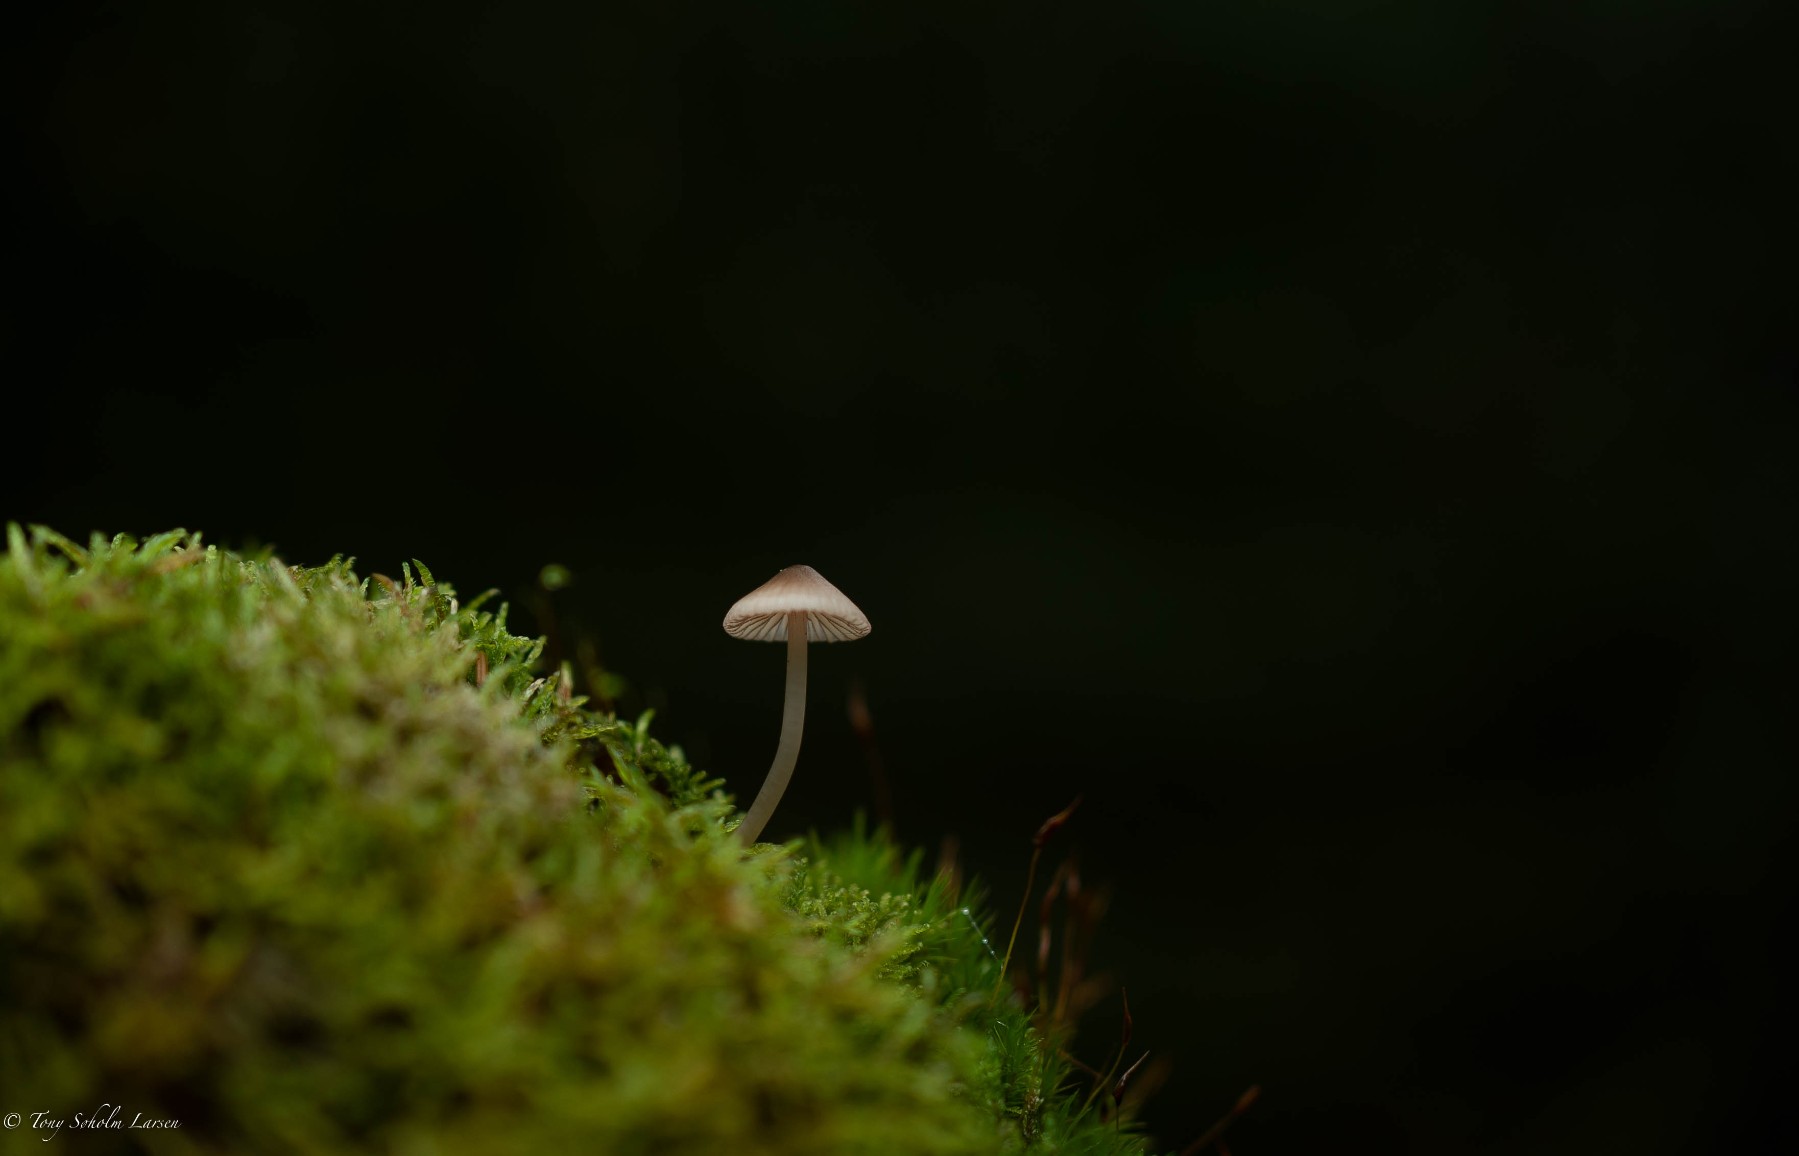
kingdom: Fungi
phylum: Basidiomycota
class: Agaricomycetes
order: Agaricales
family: Mycenaceae
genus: Mycena
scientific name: Mycena
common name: huesvamp
